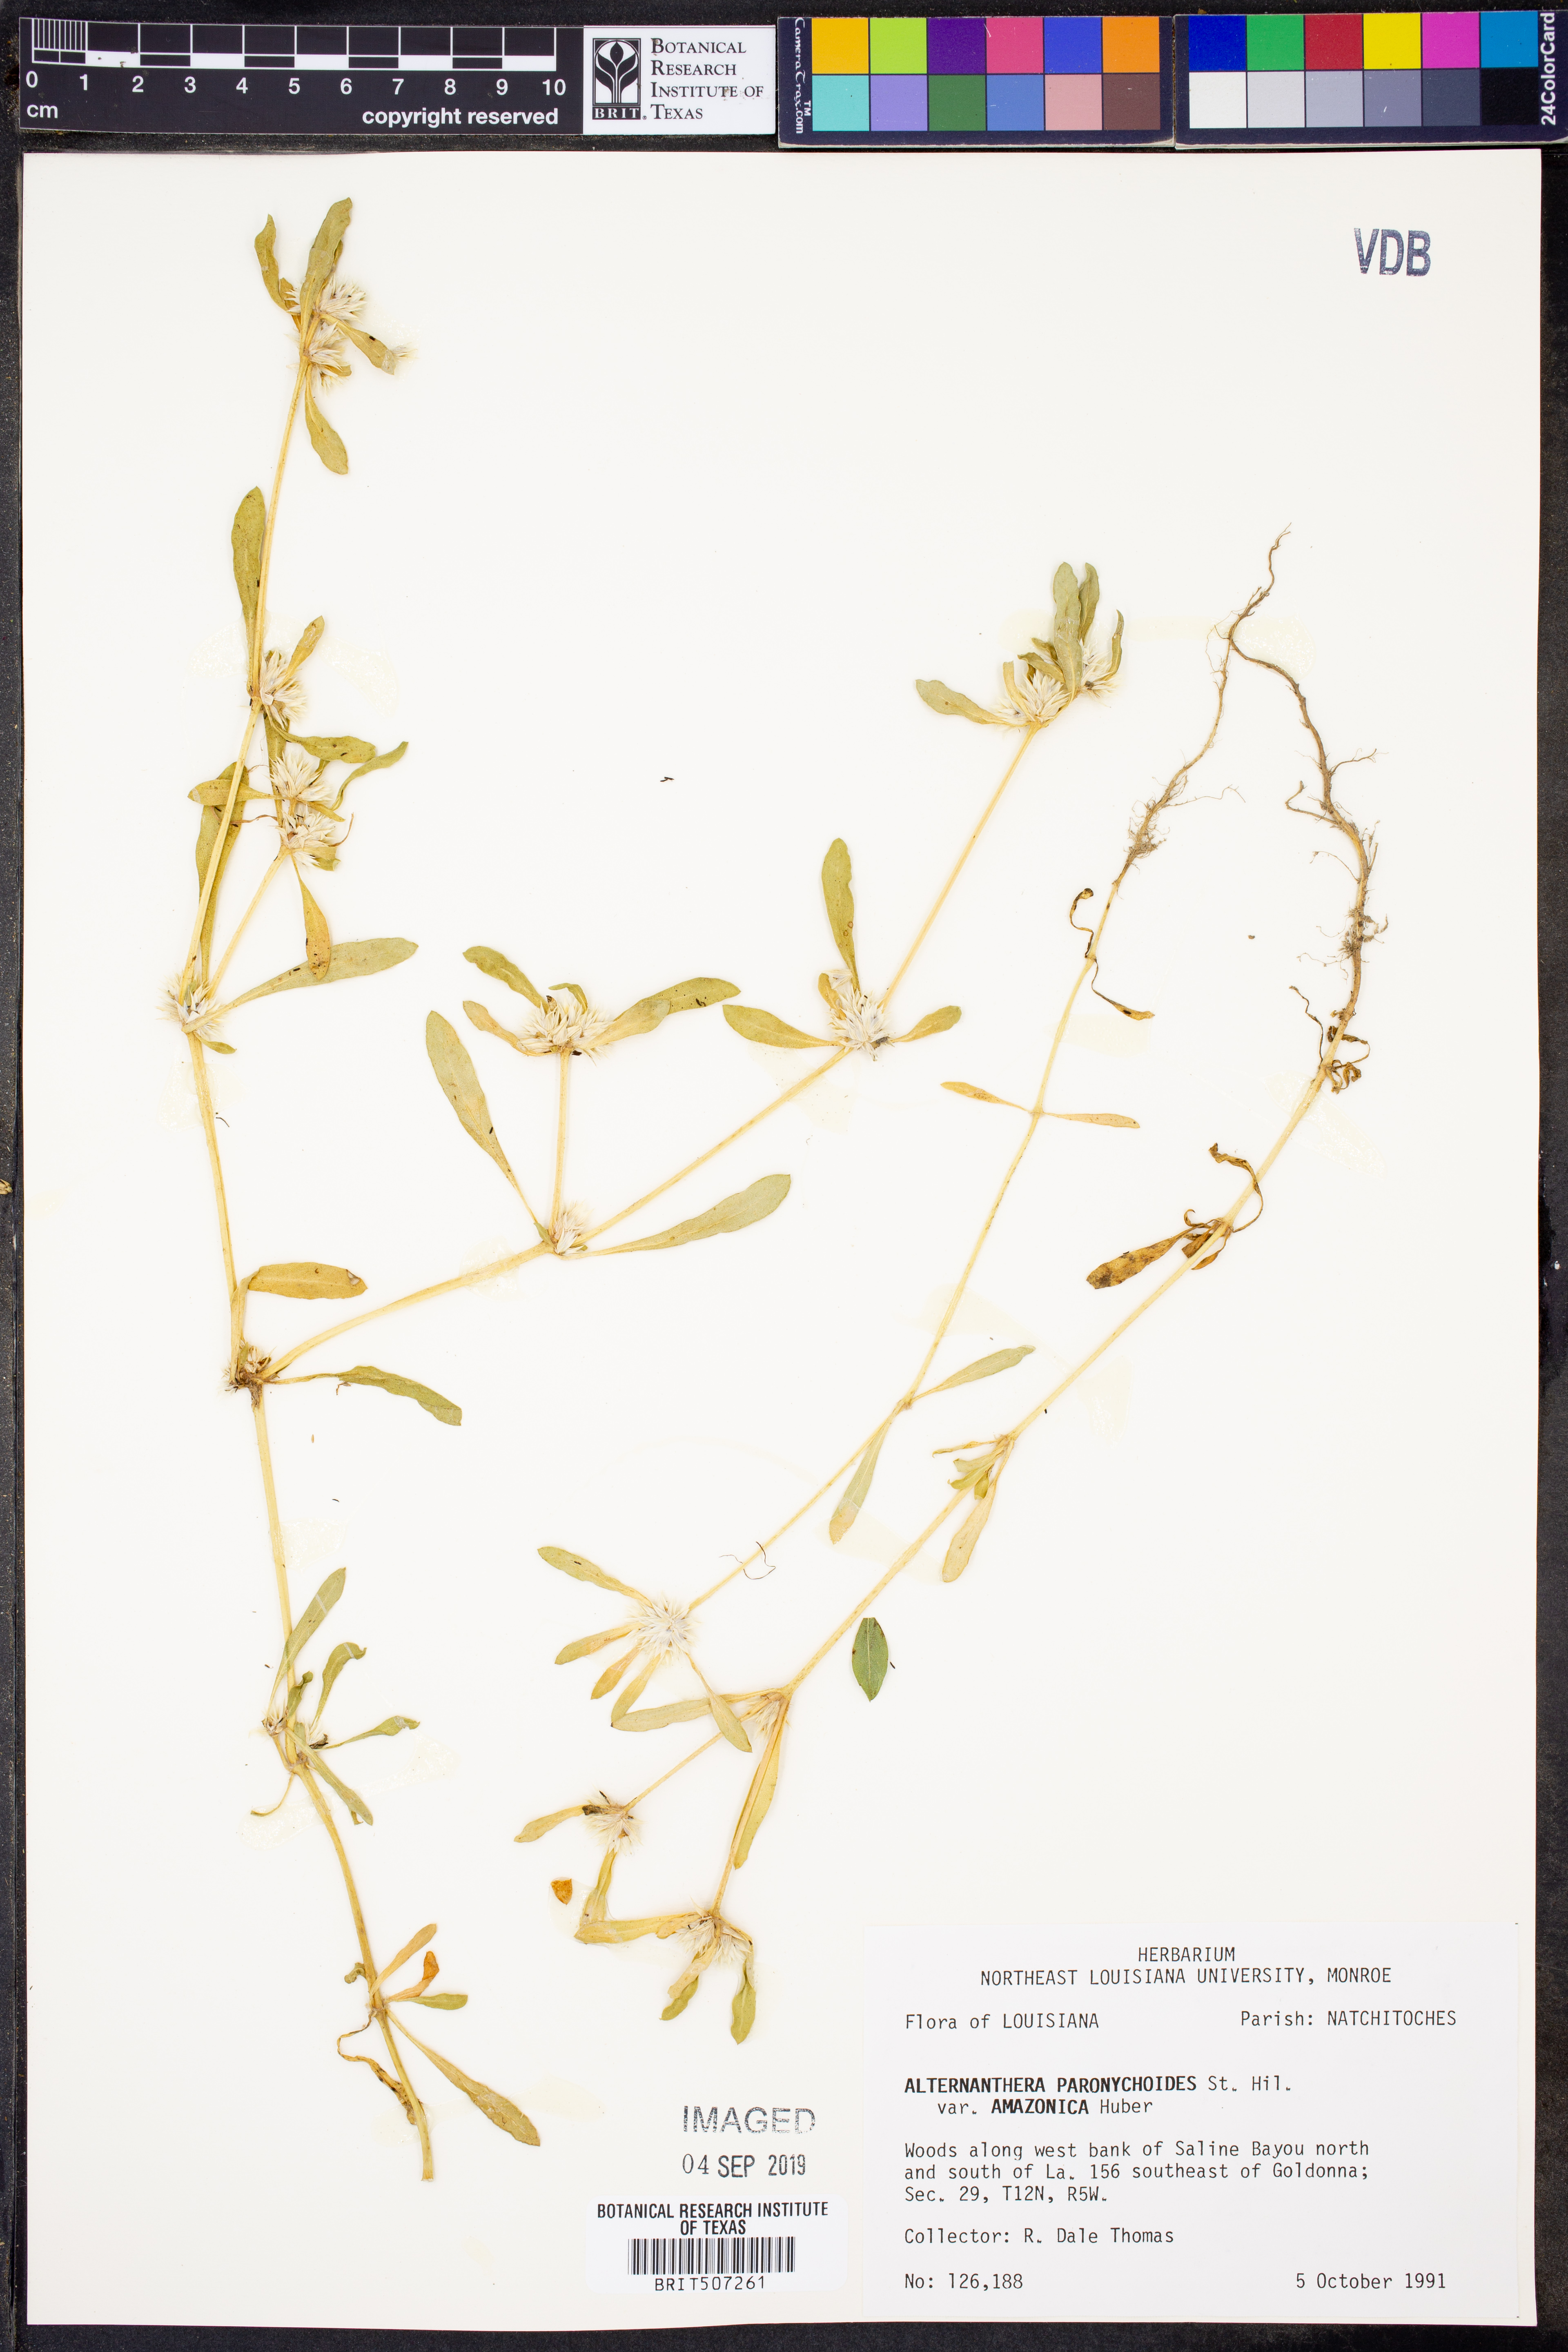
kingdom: Plantae
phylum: Tracheophyta
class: Magnoliopsida
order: Caryophyllales
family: Amaranthaceae
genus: Alternanthera
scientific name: Alternanthera paronychioides
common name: Smooth joyweed
